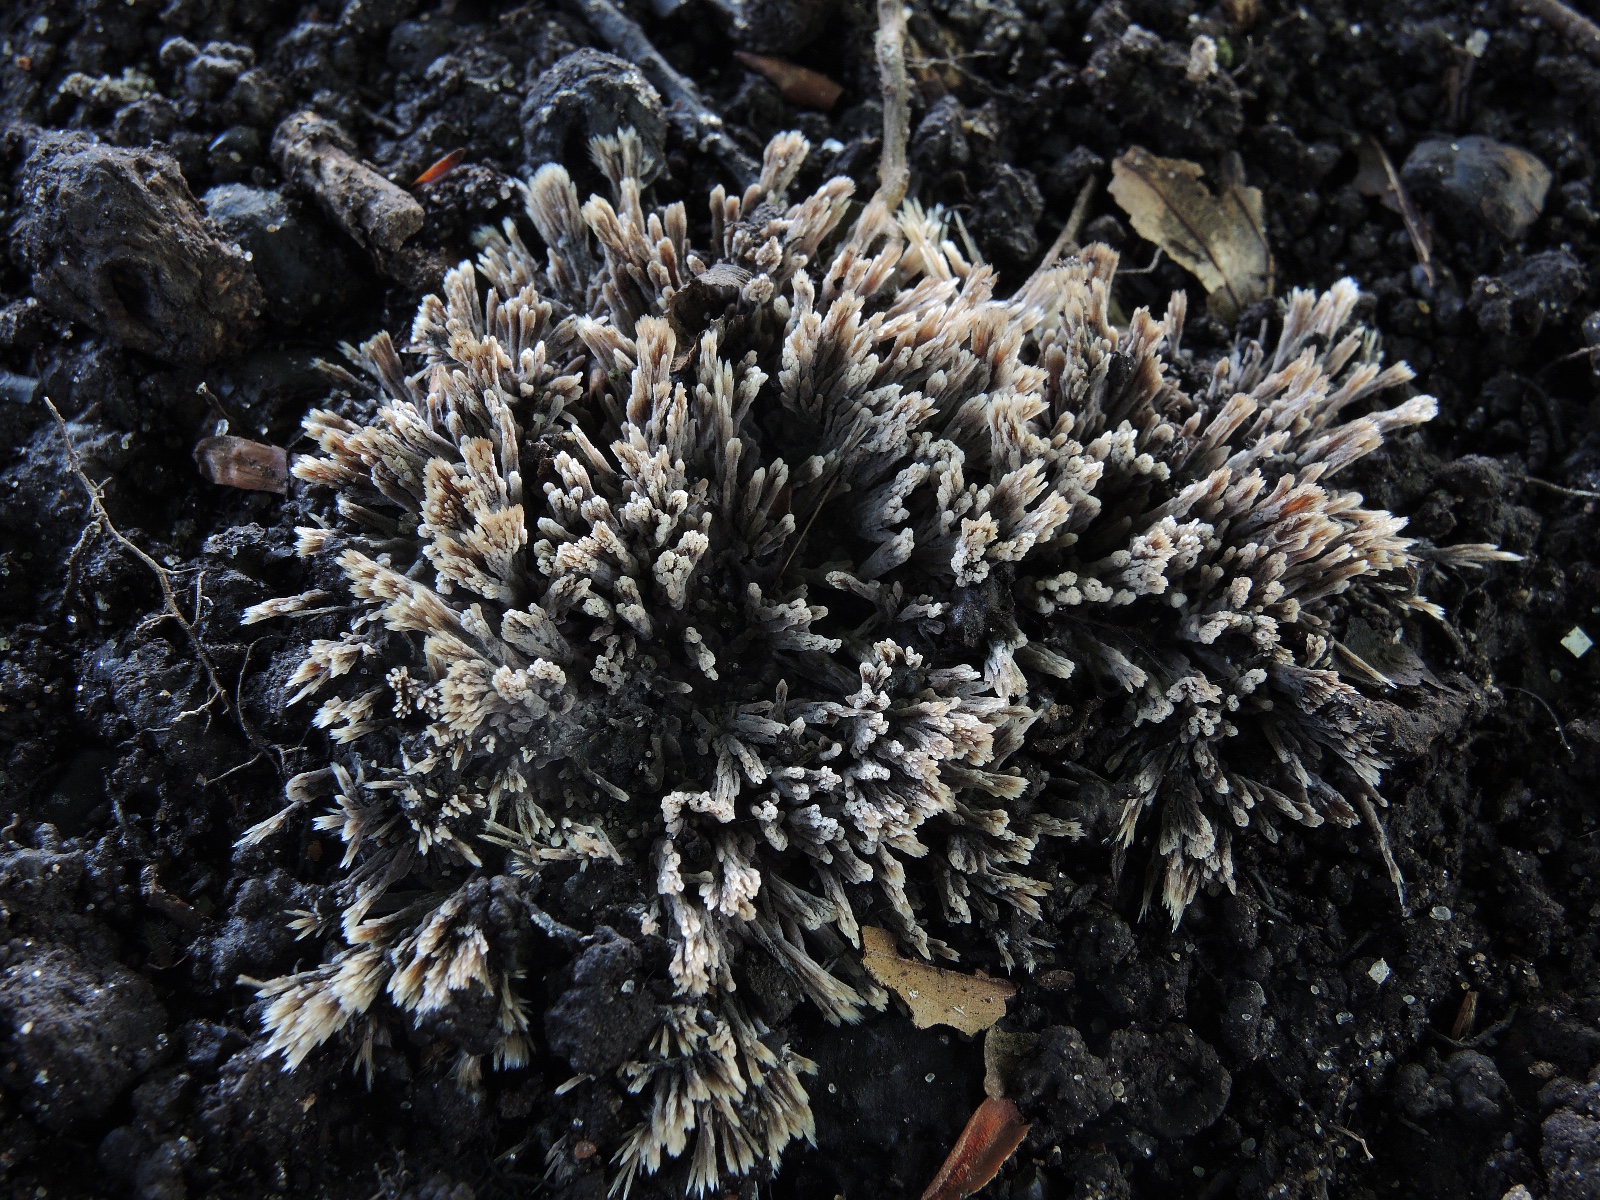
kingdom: Fungi
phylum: Basidiomycota
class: Agaricomycetes
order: Thelephorales
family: Thelephoraceae
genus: Thelephora
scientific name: Thelephora anthocephala
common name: busk-frynsesvamp
